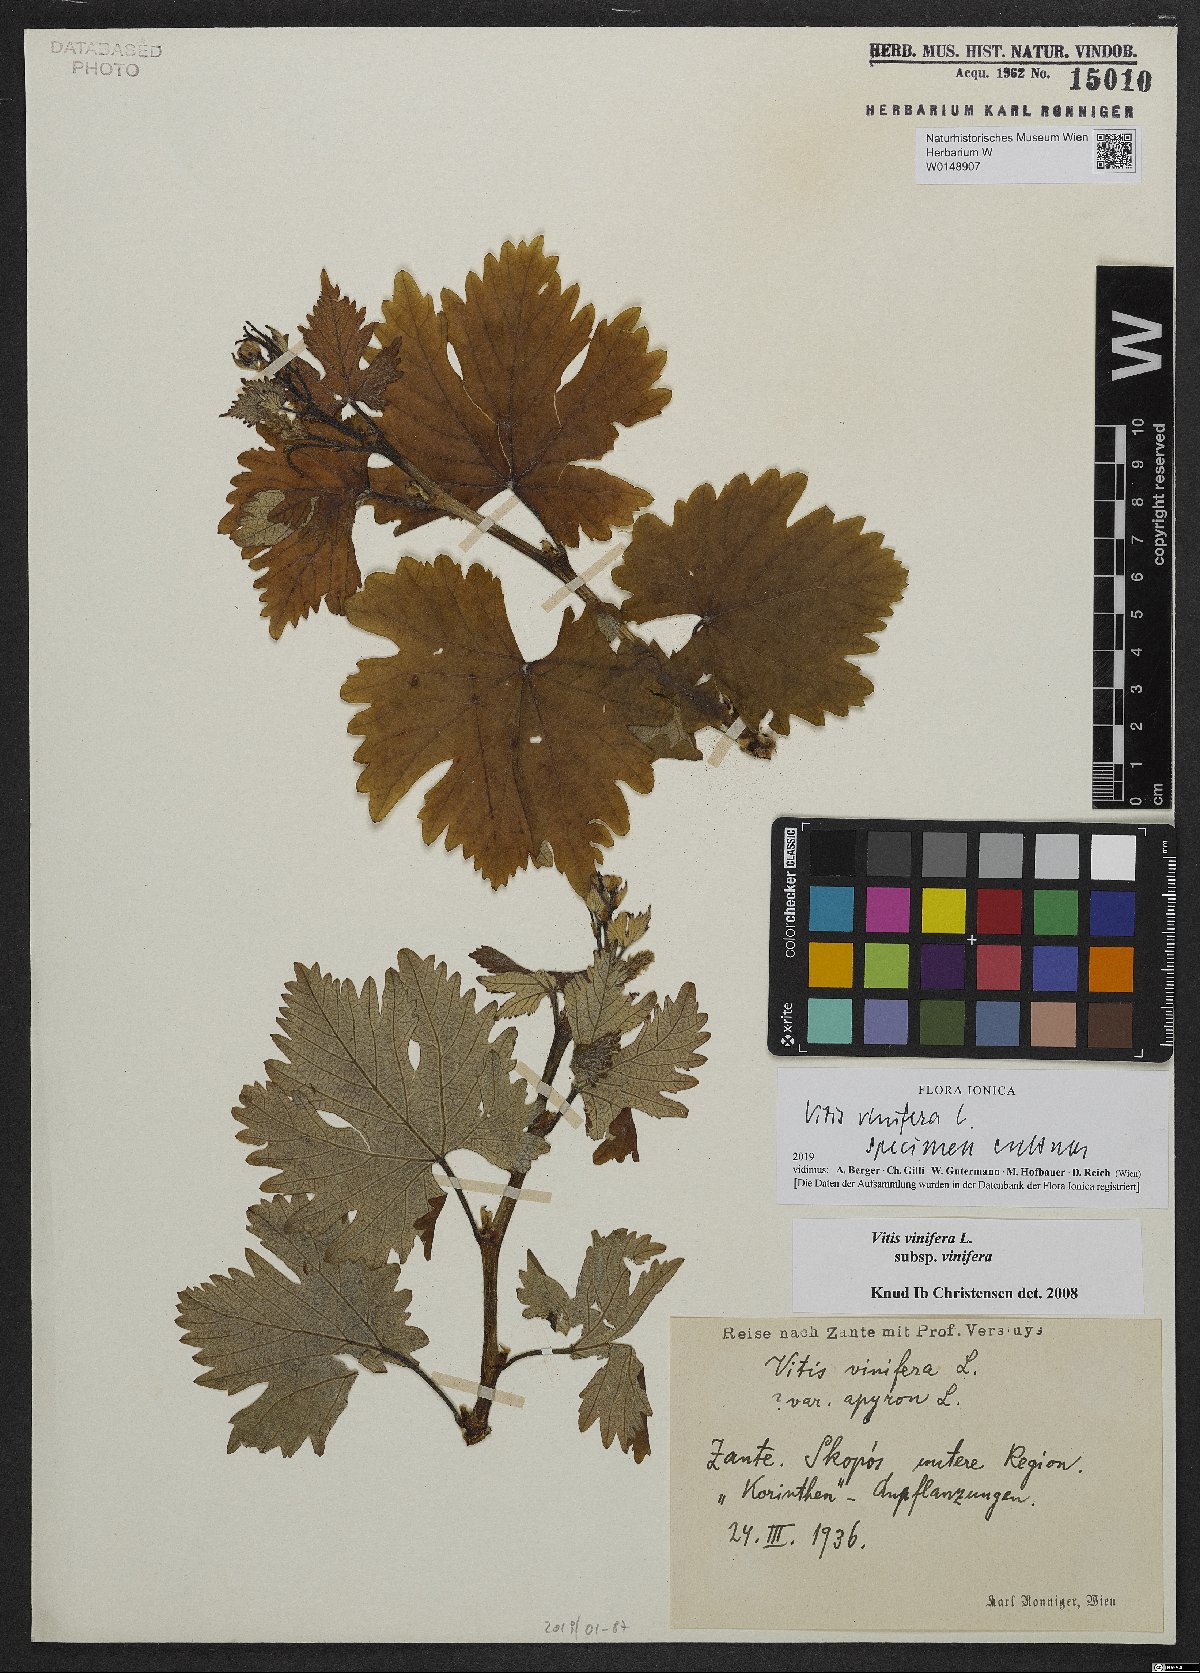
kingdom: Plantae
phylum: Tracheophyta
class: Magnoliopsida
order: Vitales
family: Vitaceae
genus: Vitis
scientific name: Vitis vinifera
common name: Grape-vine
